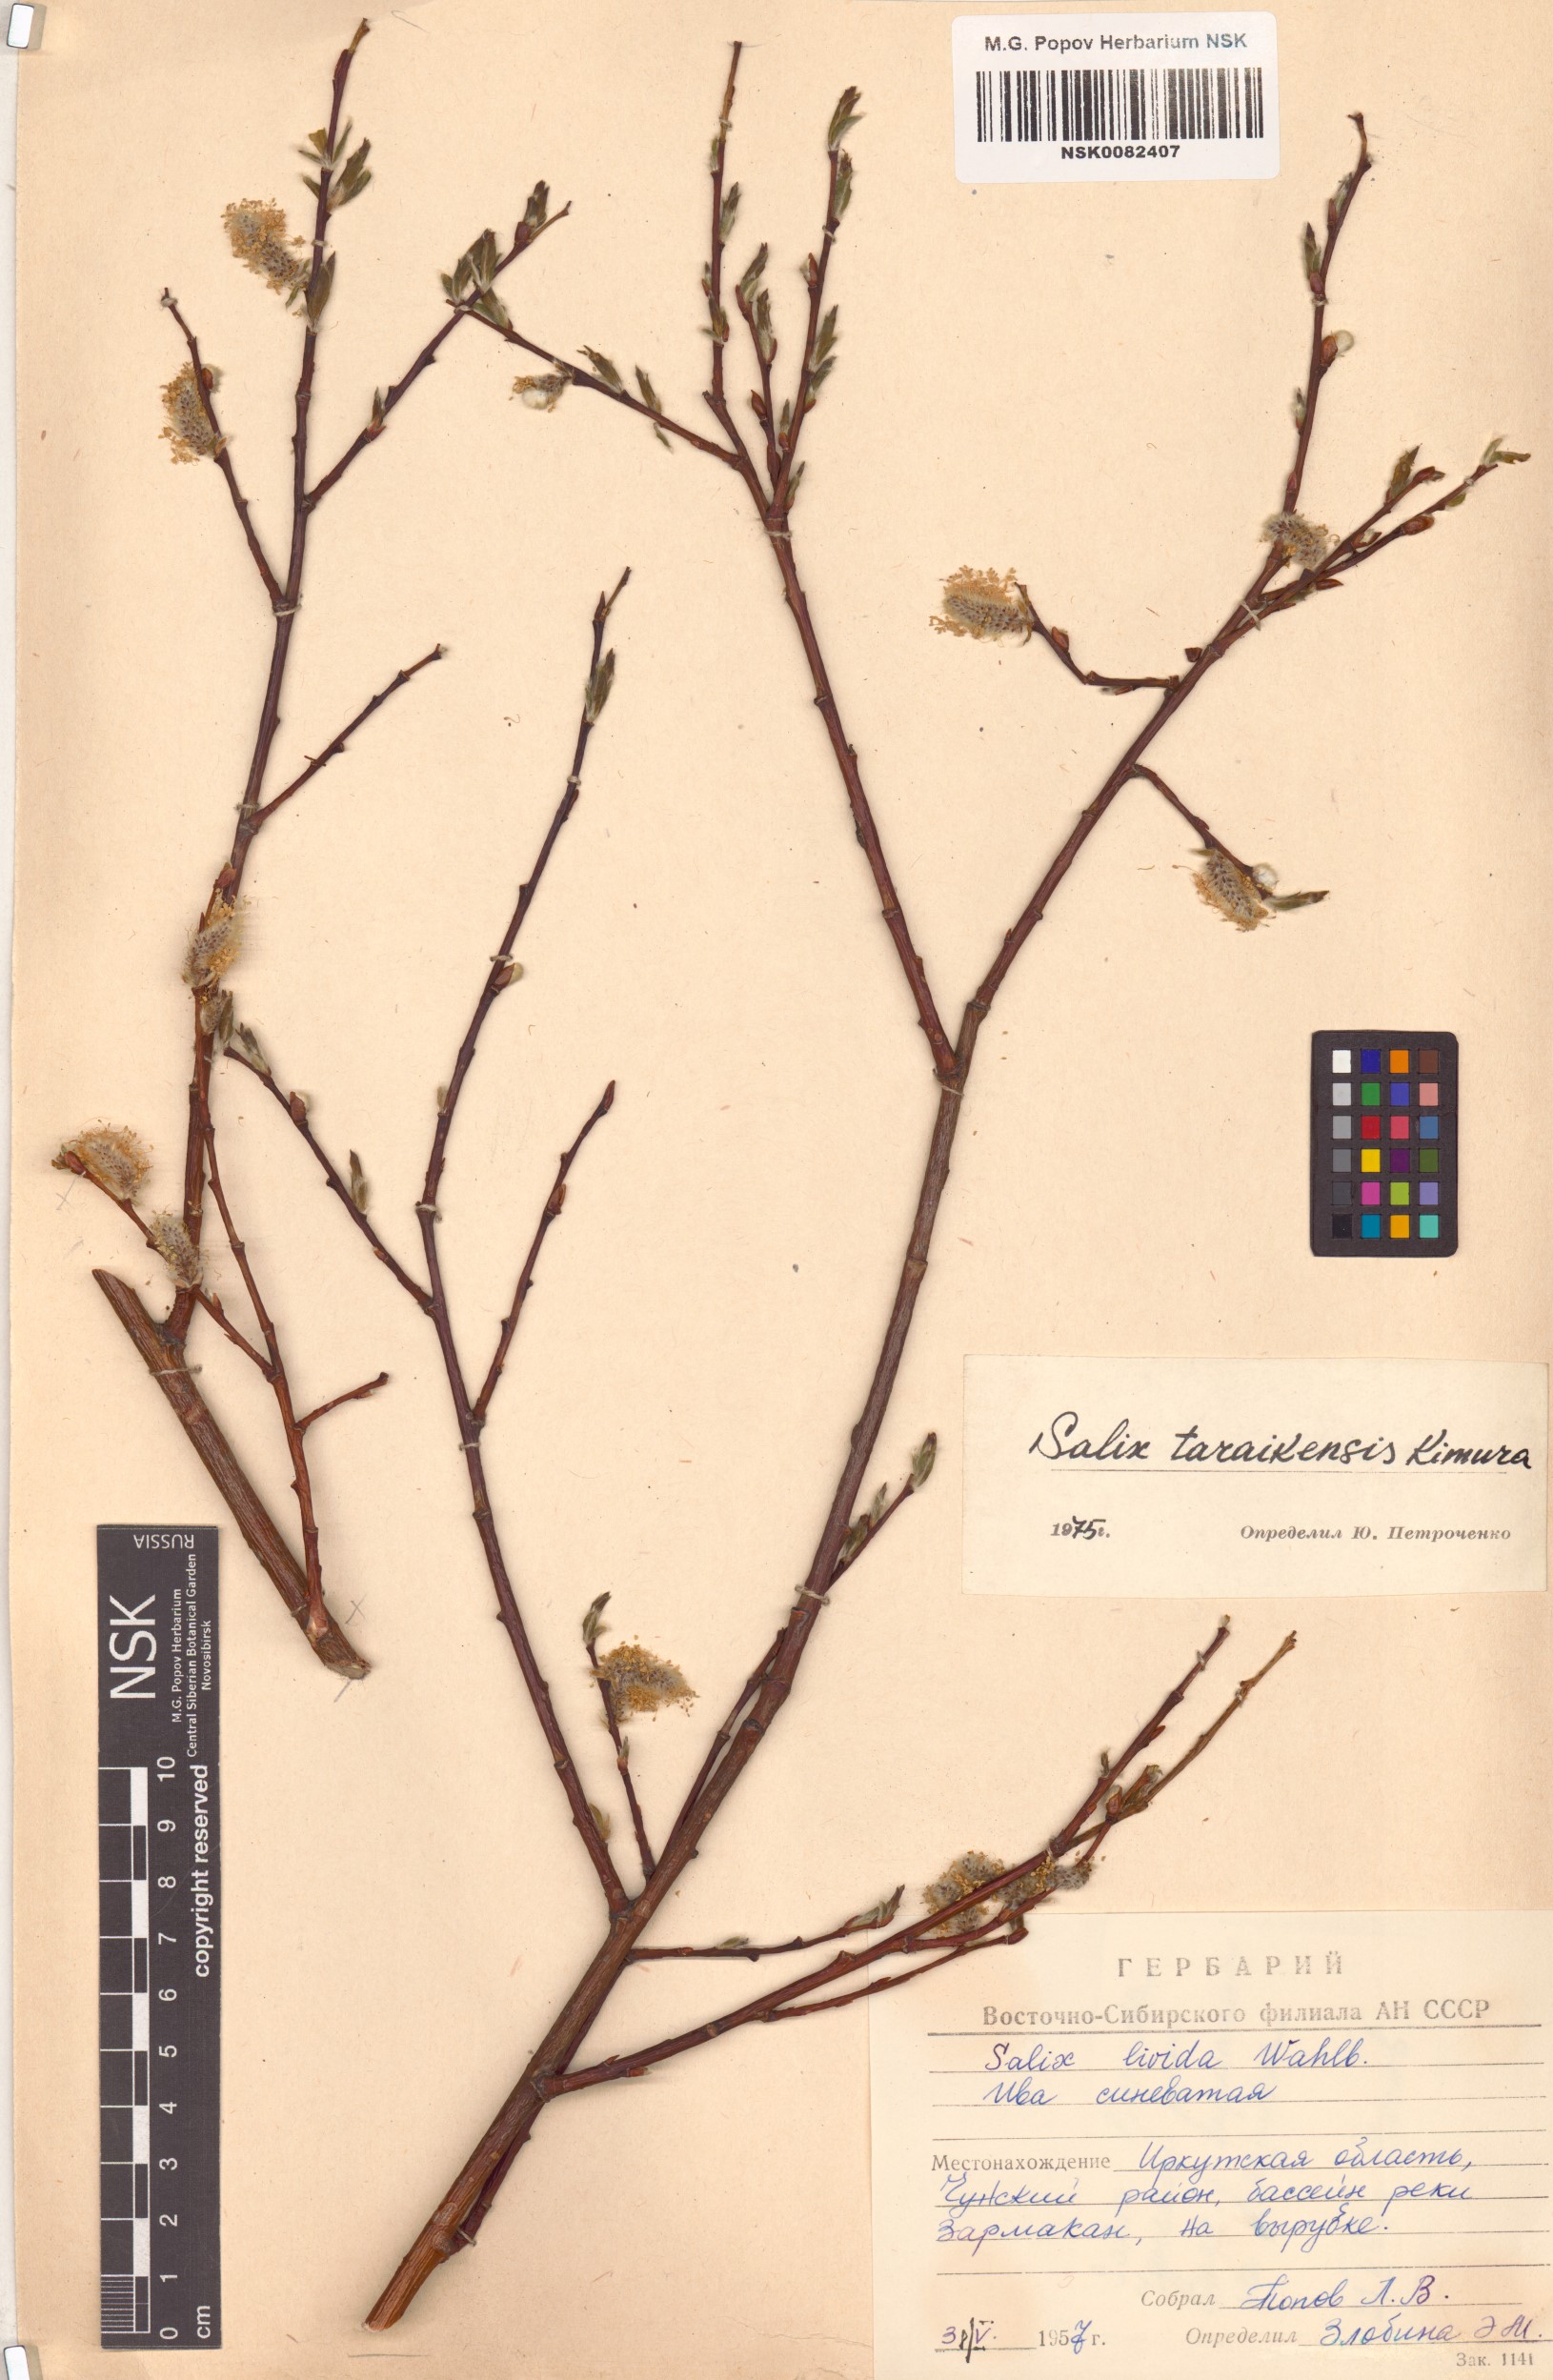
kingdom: Plantae
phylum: Tracheophyta
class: Magnoliopsida
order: Malpighiales
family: Salicaceae
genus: Salix
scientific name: Salix taraikensis
